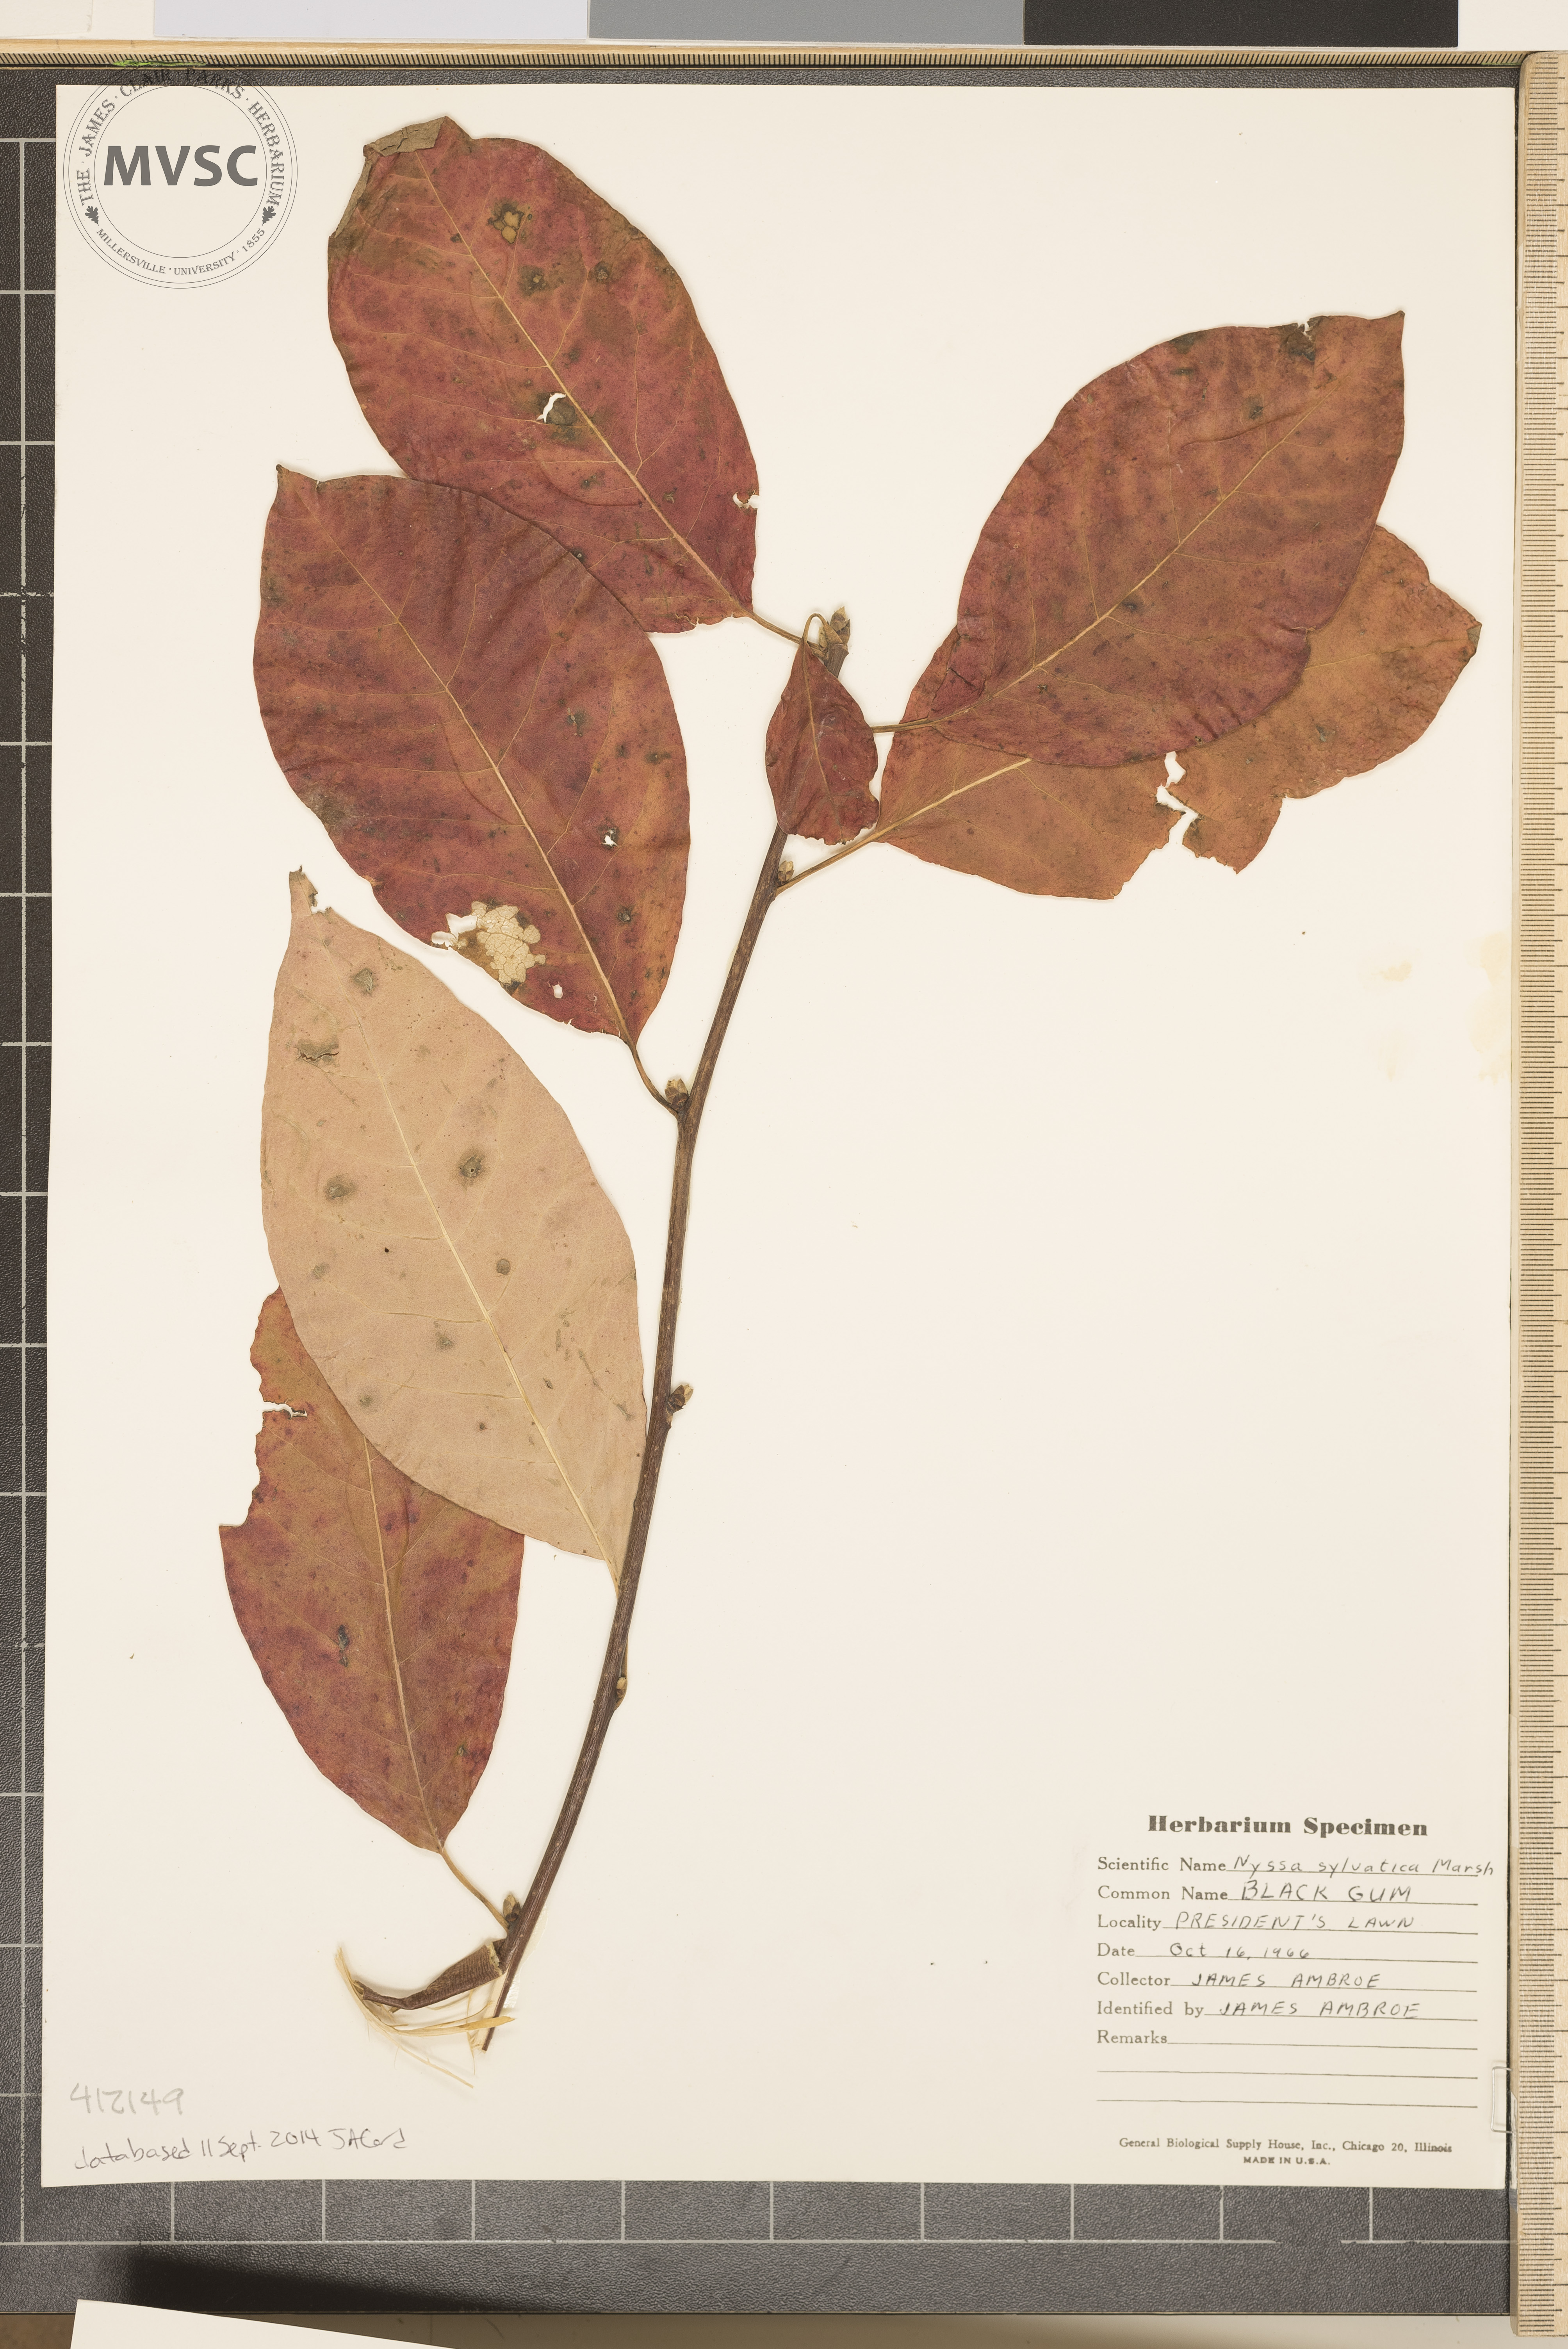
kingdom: Plantae
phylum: Tracheophyta
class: Magnoliopsida
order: Cornales
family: Nyssaceae
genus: Nyssa
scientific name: Nyssa sylvatica
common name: Black Gum
